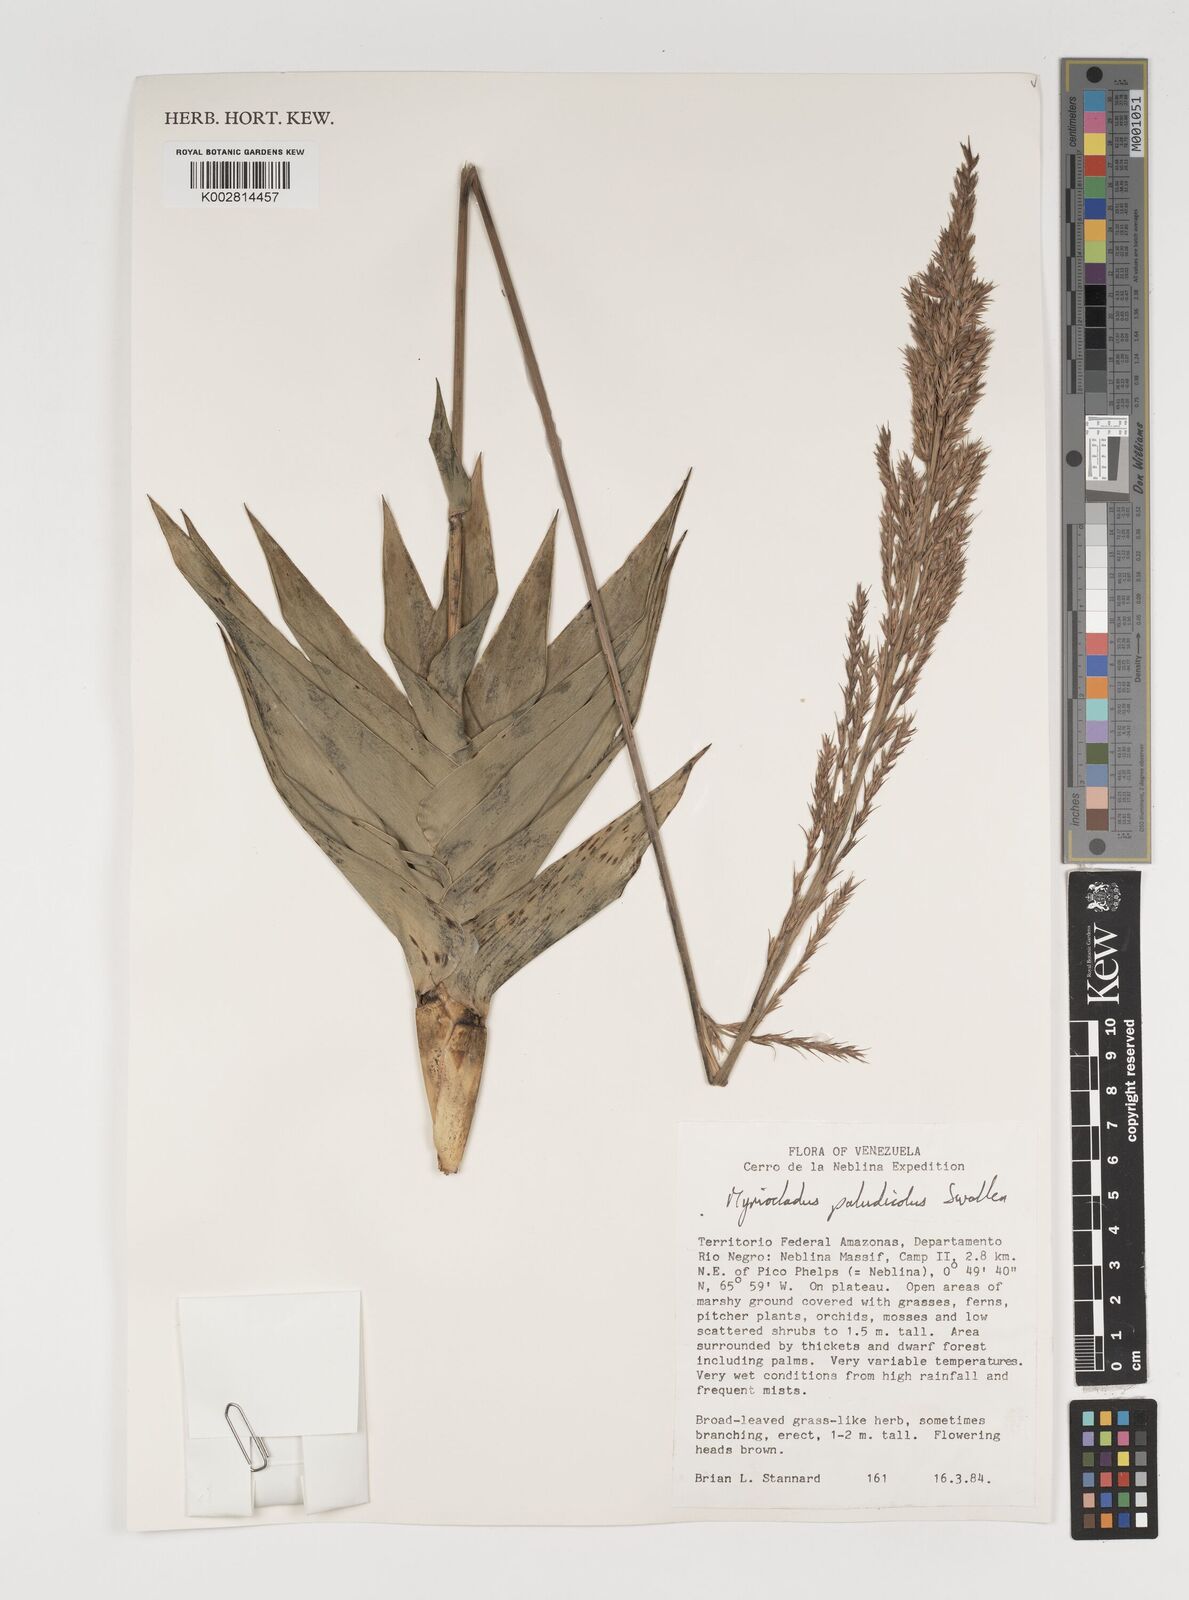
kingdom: Plantae
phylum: Tracheophyta
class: Liliopsida
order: Poales
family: Poaceae
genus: Myriocladus
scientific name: Myriocladus paludicola
